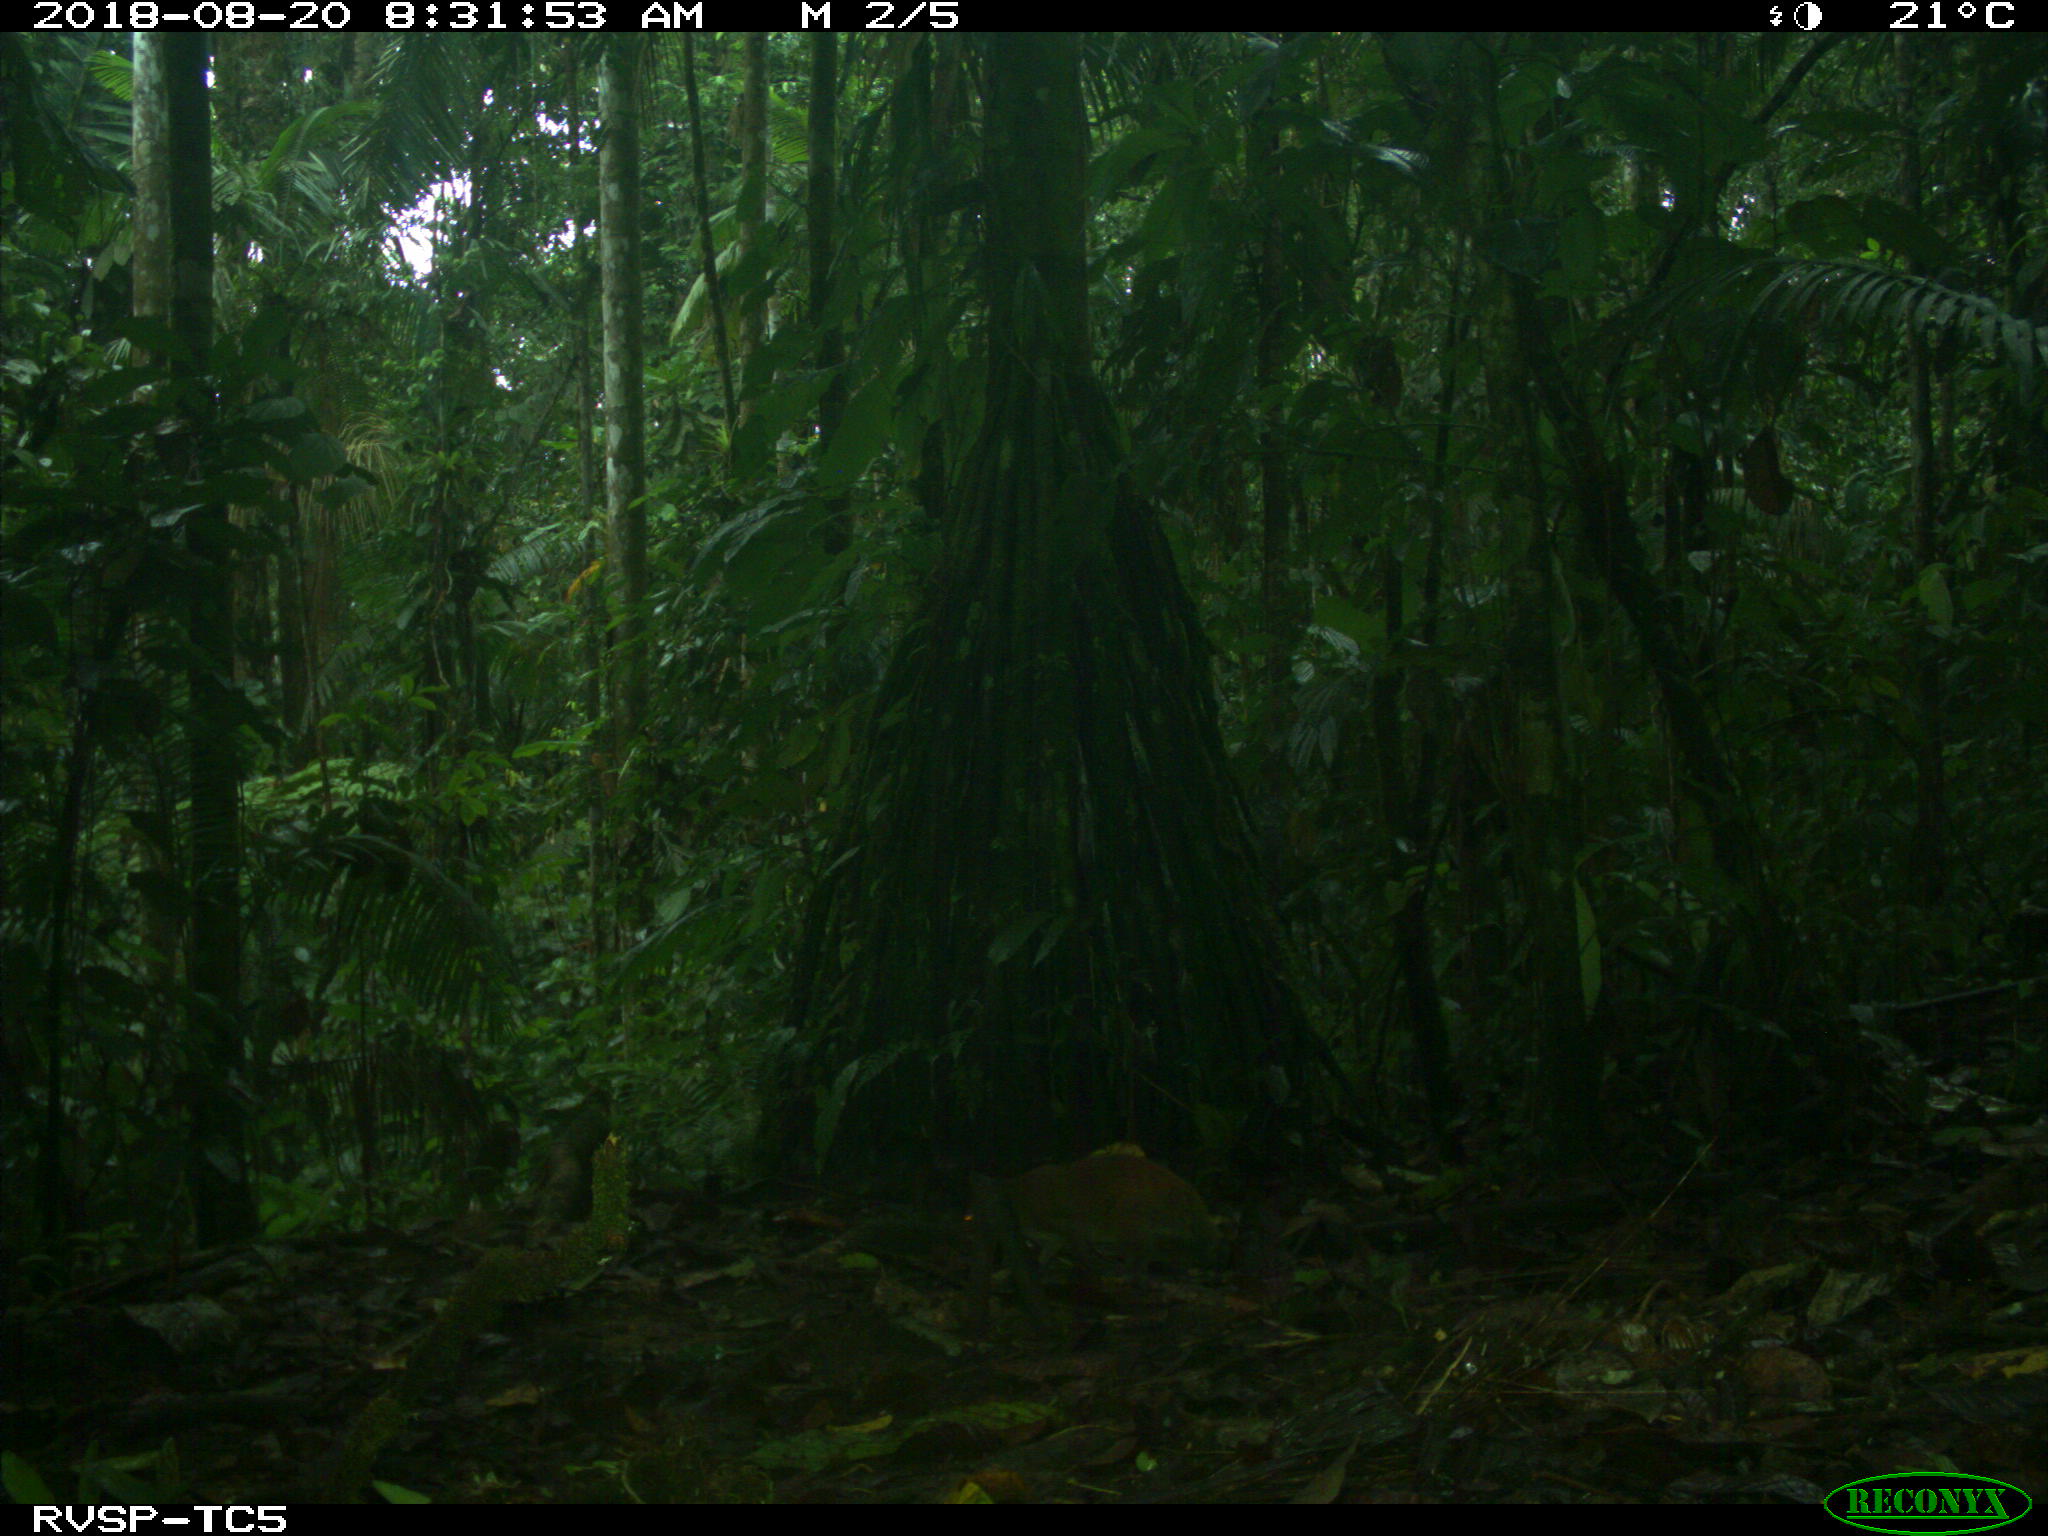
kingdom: Animalia
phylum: Chordata
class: Mammalia
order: Rodentia
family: Dasyproctidae
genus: Dasyprocta
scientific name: Dasyprocta punctata
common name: Central american agouti
